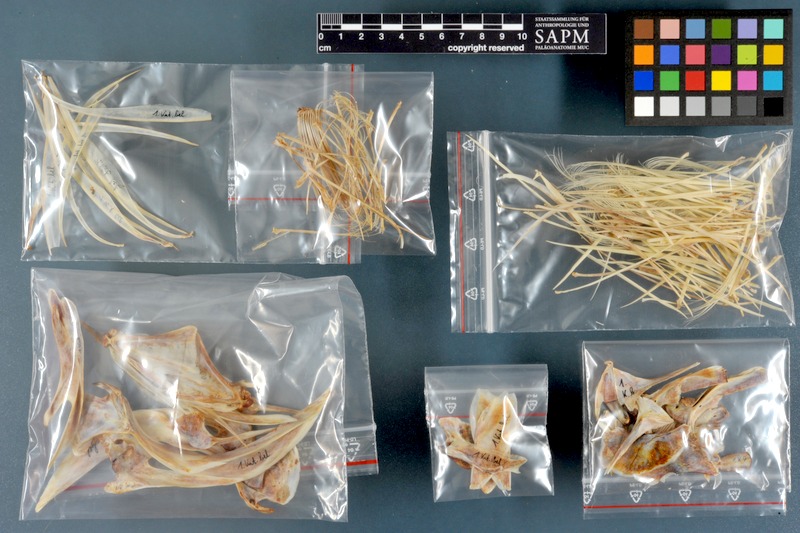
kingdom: Animalia
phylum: Chordata
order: Perciformes
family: Scombridae
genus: Katsuwonus
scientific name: Katsuwonus pelamis
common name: Skipjack tuna
